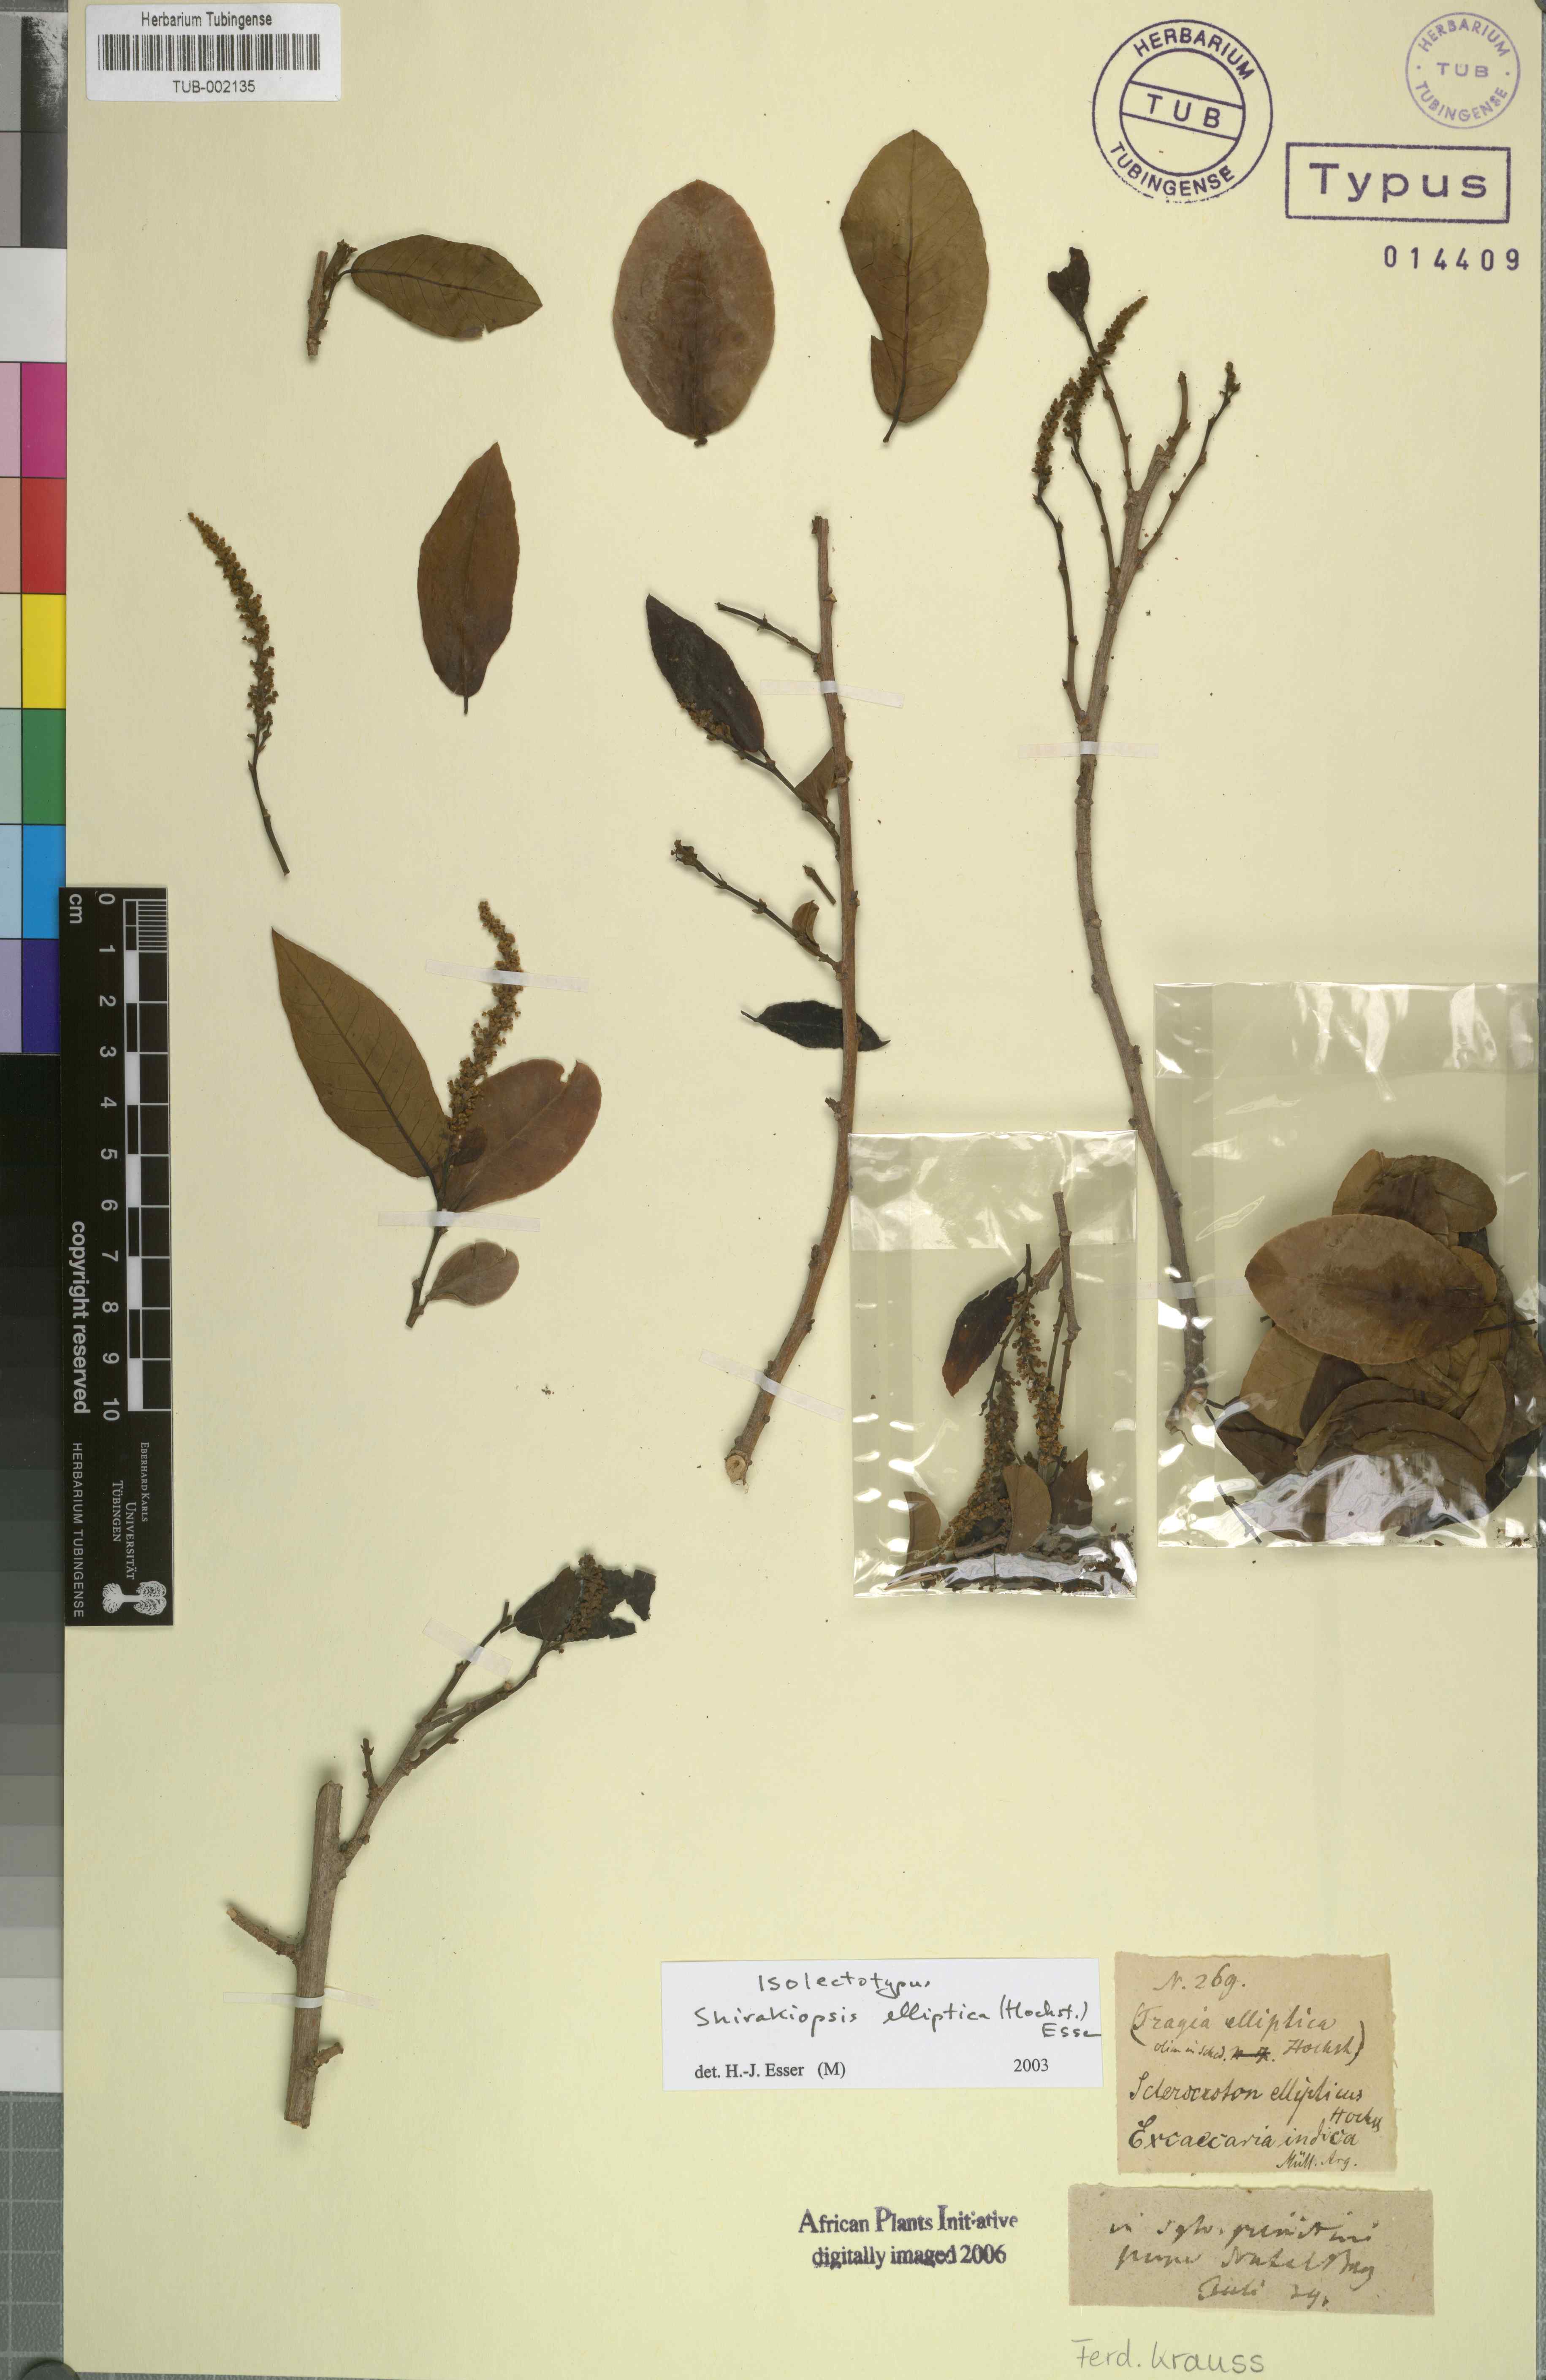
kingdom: Plantae
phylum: Tracheophyta
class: Magnoliopsida
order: Malpighiales
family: Euphorbiaceae
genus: Shirakiopsis
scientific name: Shirakiopsis elliptica
